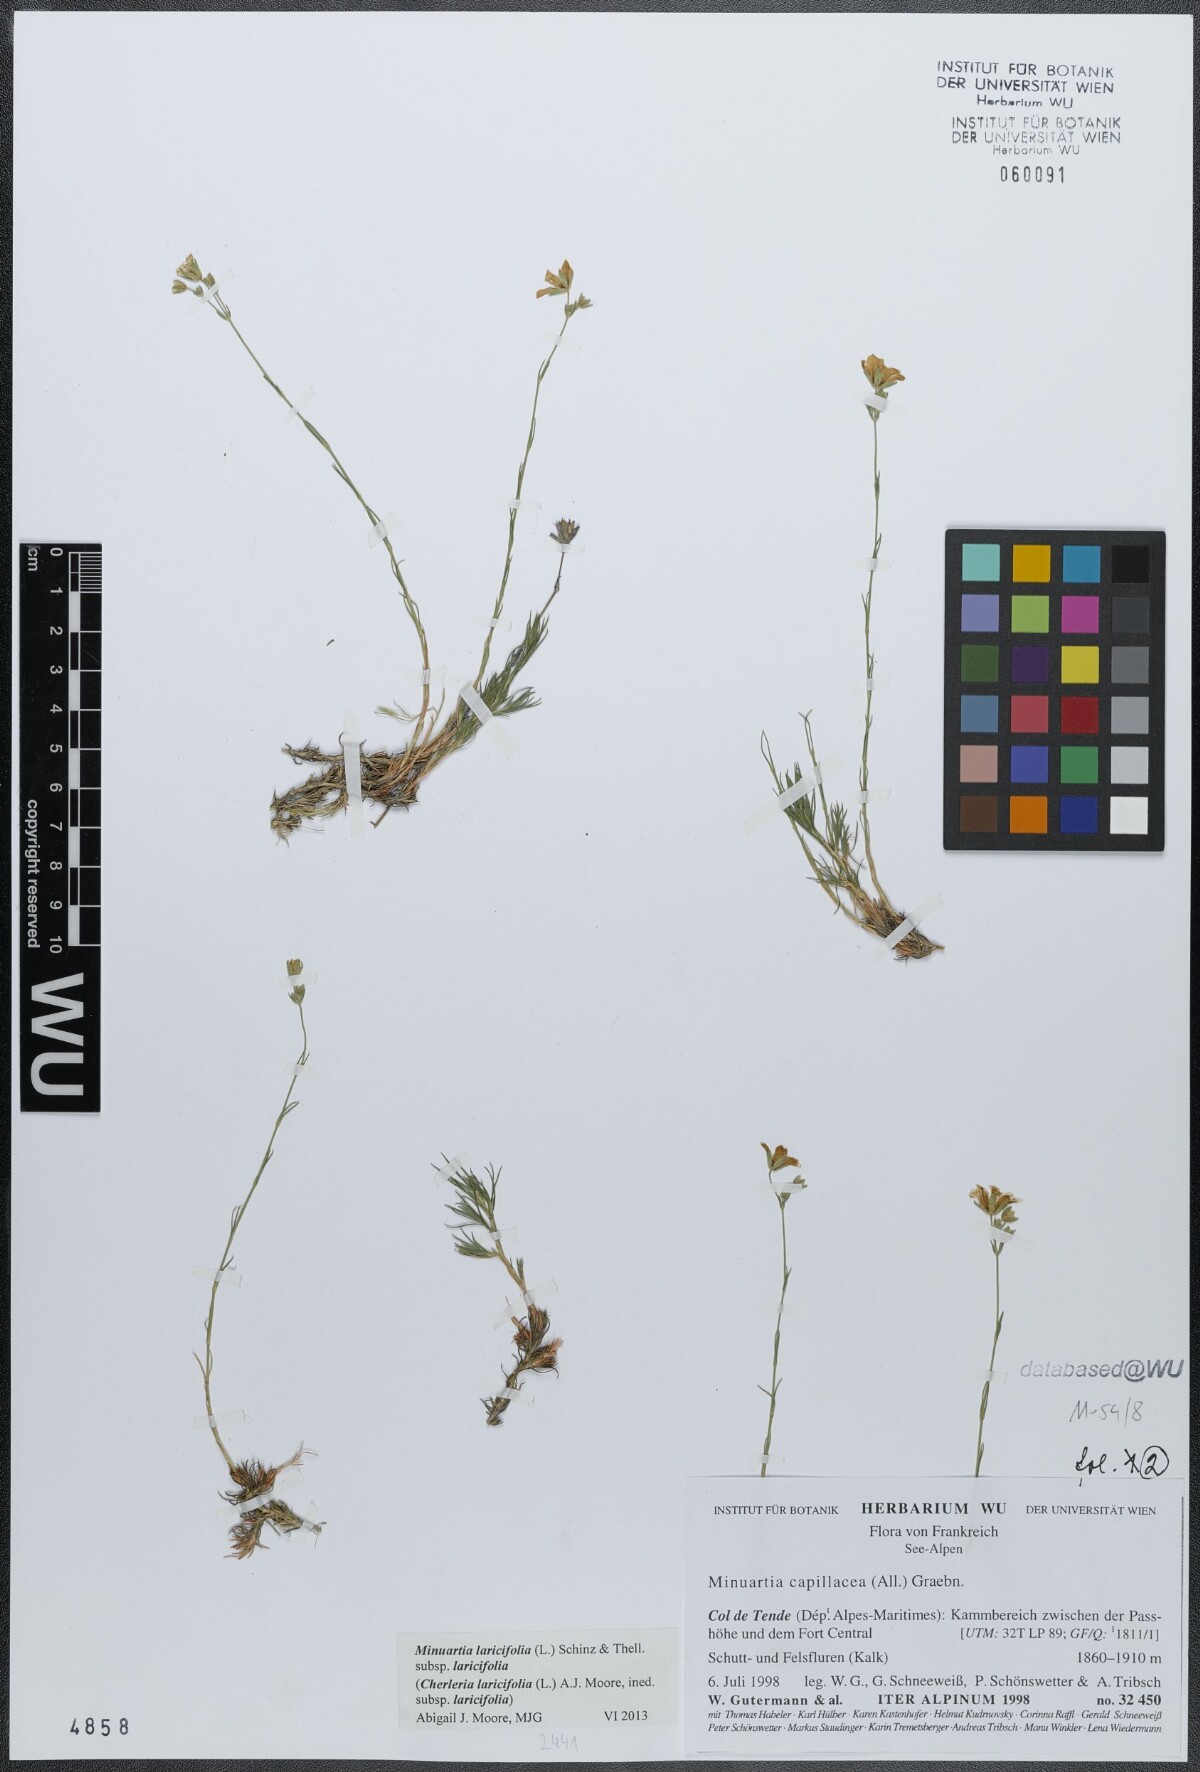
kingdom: Plantae
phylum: Tracheophyta
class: Magnoliopsida
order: Caryophyllales
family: Caryophyllaceae
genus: Cherleria
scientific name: Cherleria laricifolia
